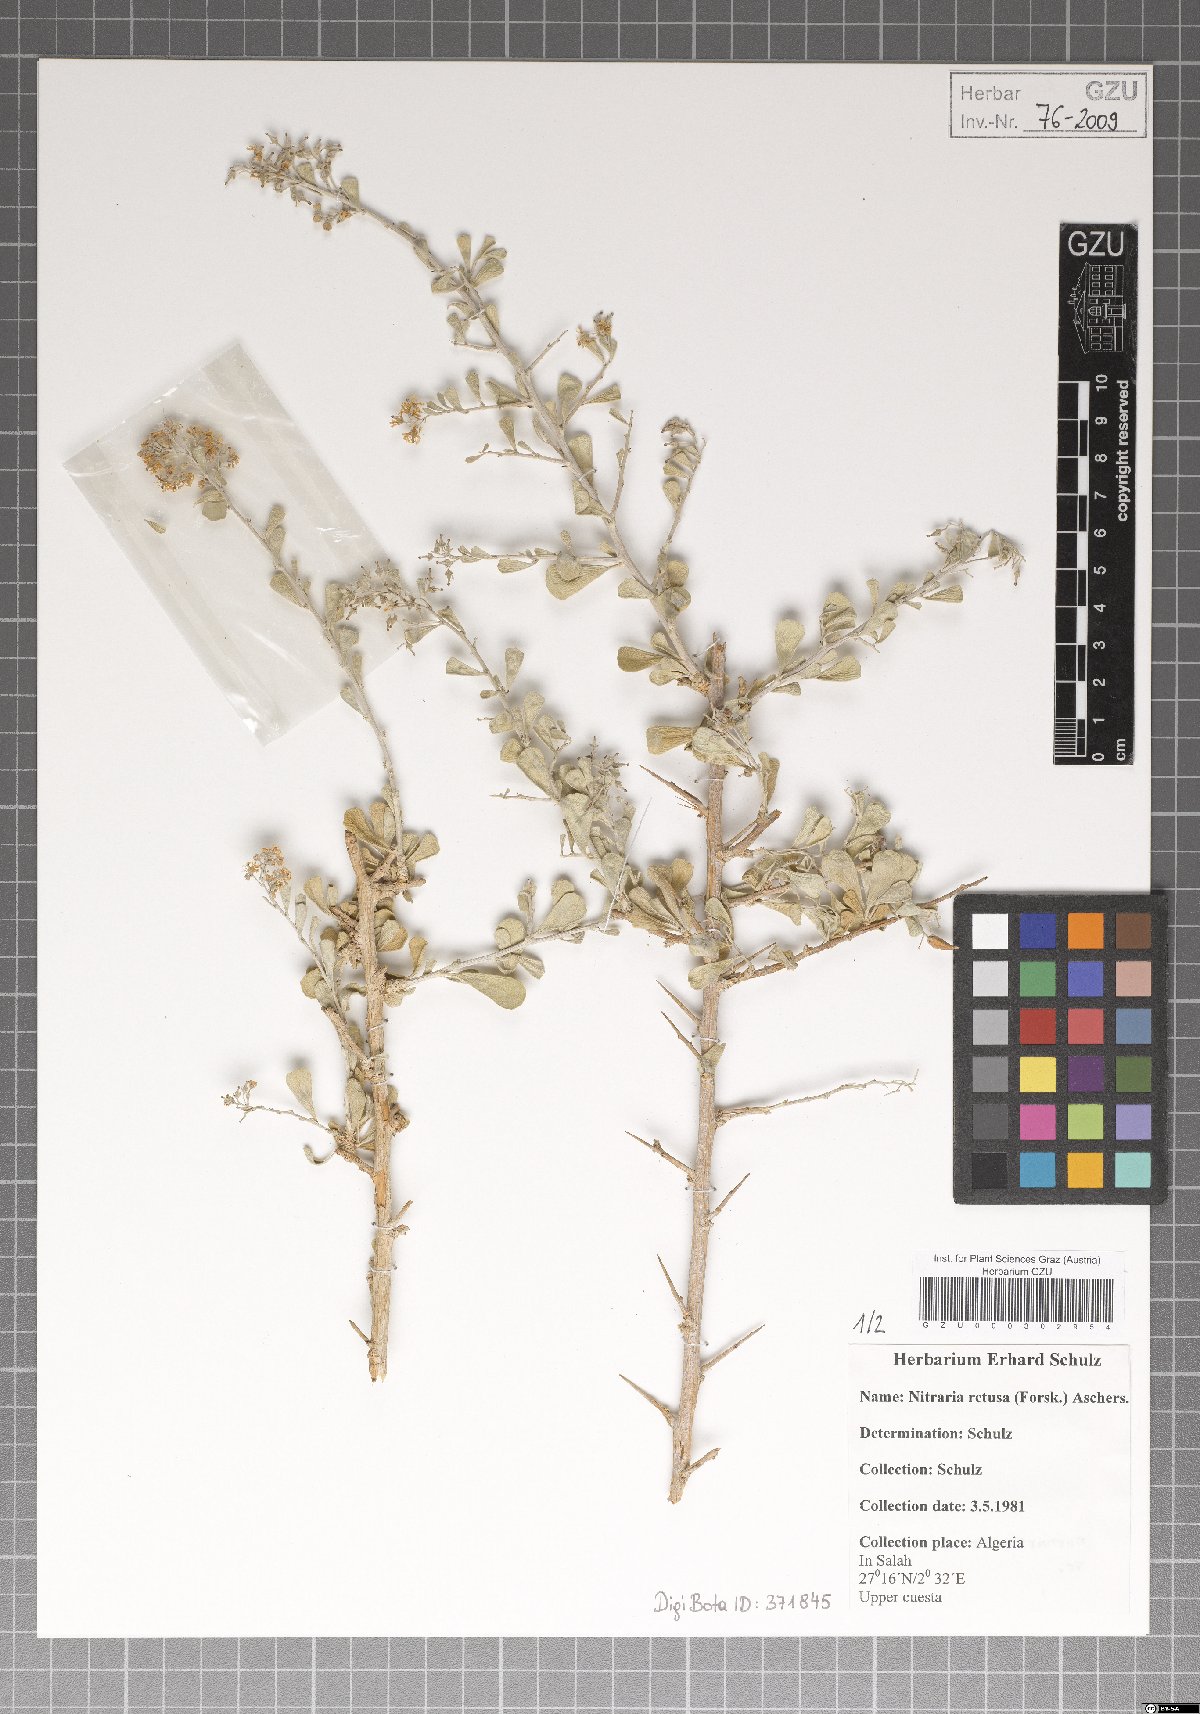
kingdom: Plantae
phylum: Tracheophyta
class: Magnoliopsida
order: Sapindales
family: Nitrariaceae
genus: Nitraria
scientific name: Nitraria retusa
